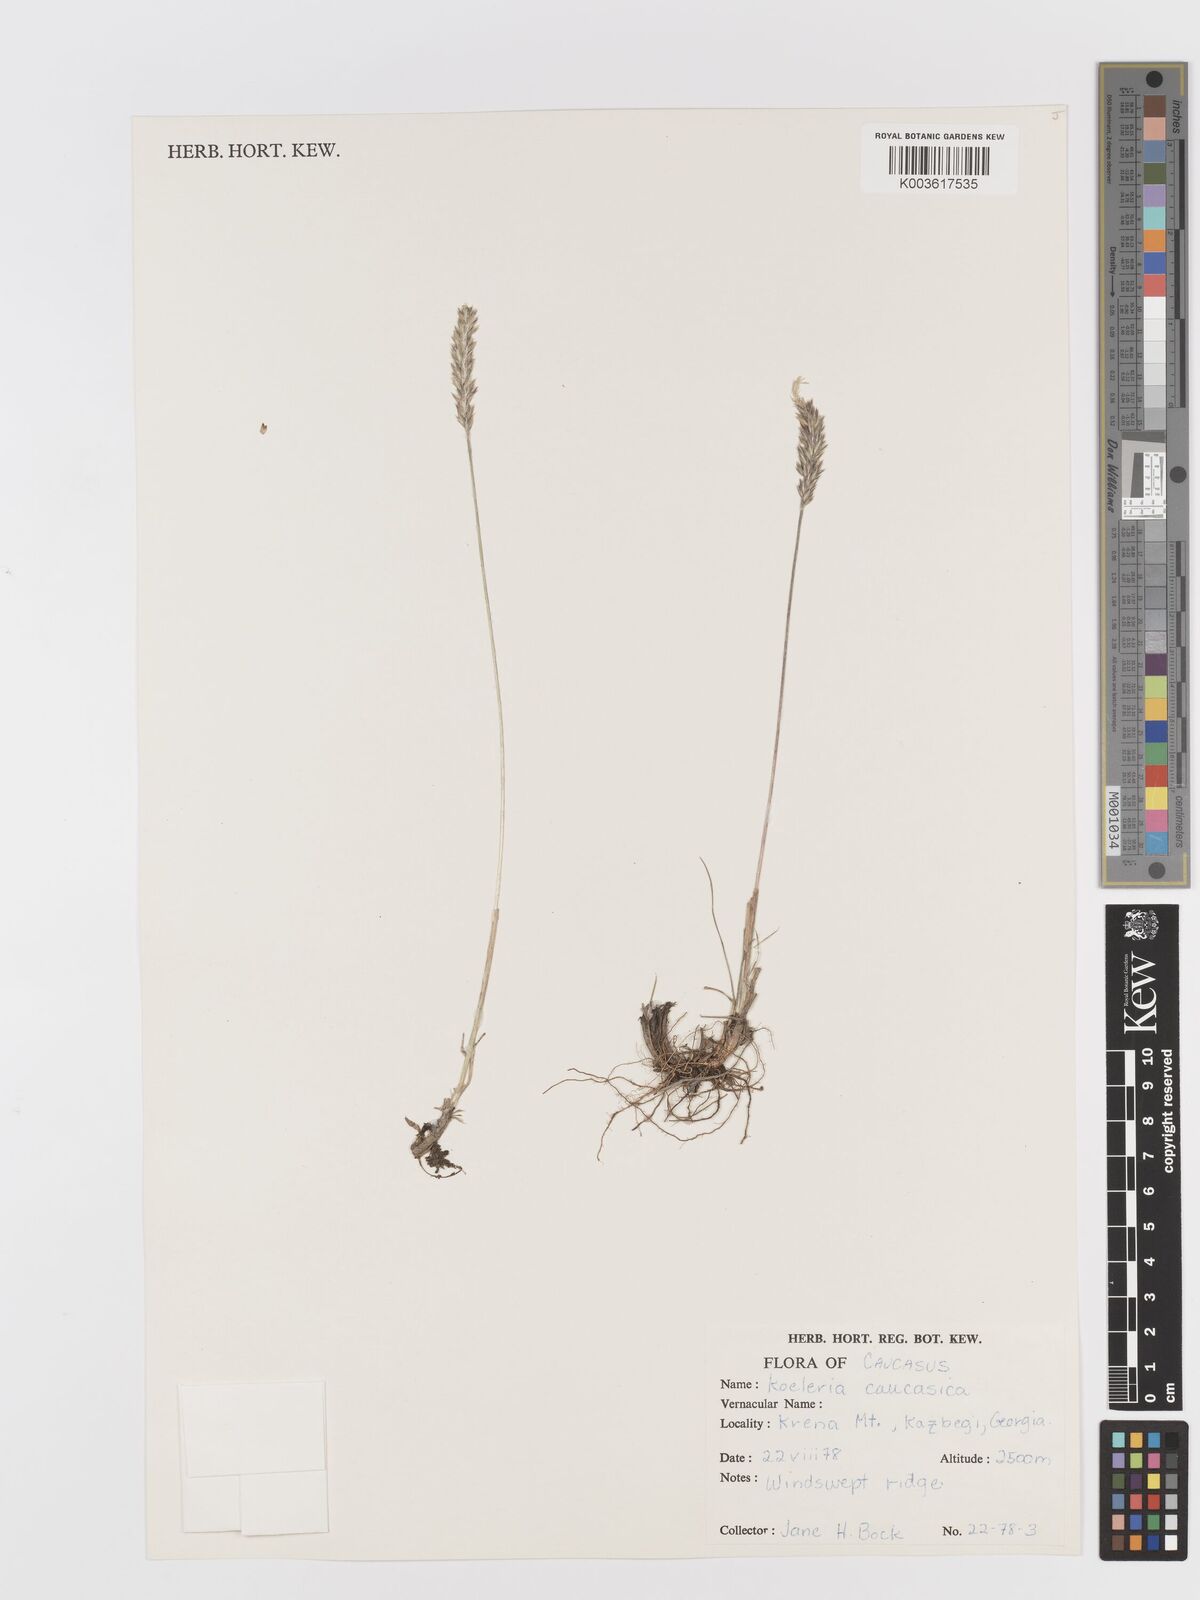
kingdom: Plantae
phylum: Tracheophyta
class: Liliopsida
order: Poales
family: Poaceae
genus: Koeleria
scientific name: Koeleria eriostachya
